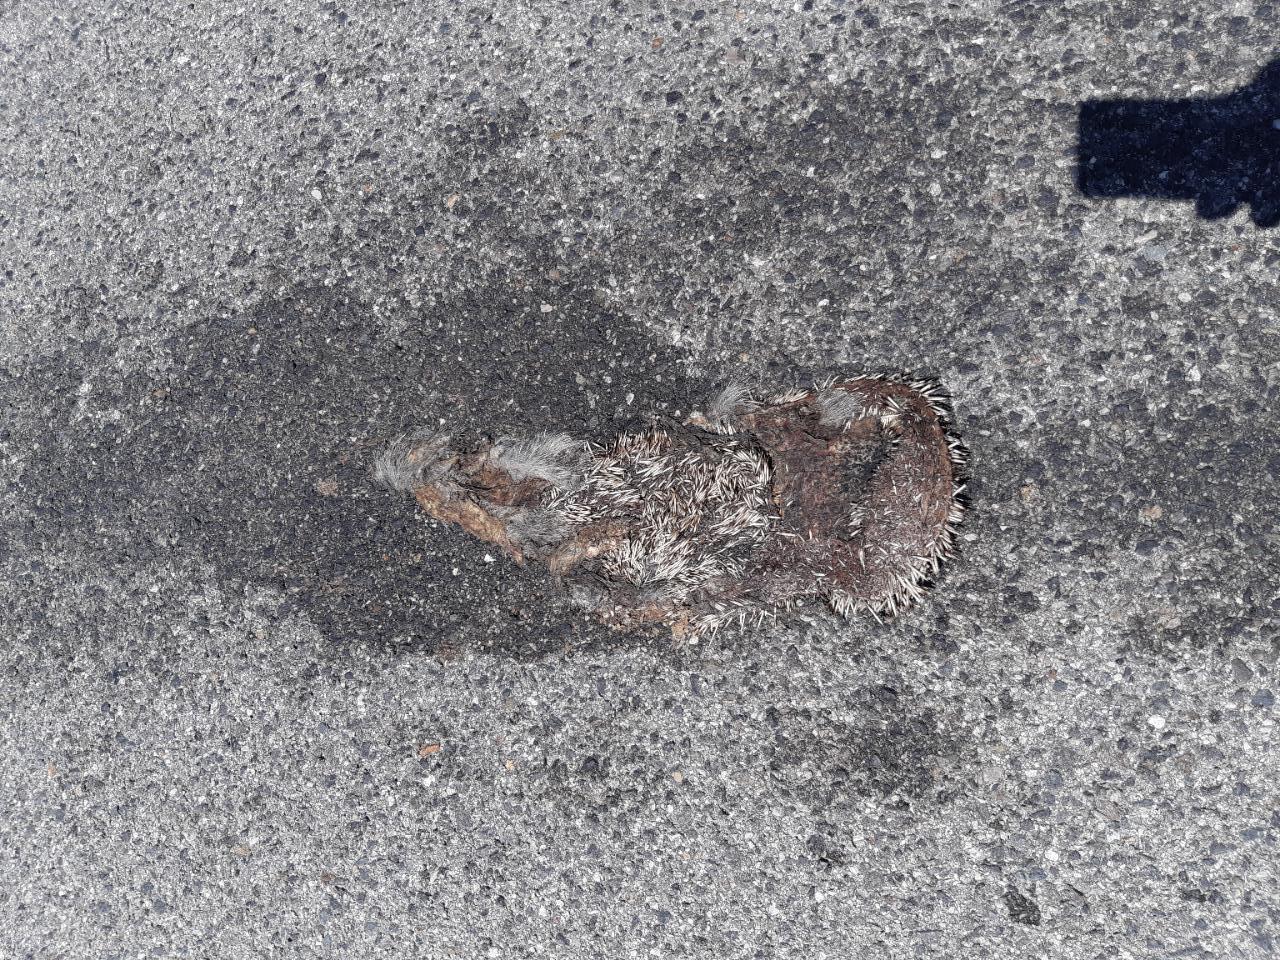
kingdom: Animalia
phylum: Chordata
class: Mammalia
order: Erinaceomorpha
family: Erinaceidae
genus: Erinaceus
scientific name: Erinaceus
